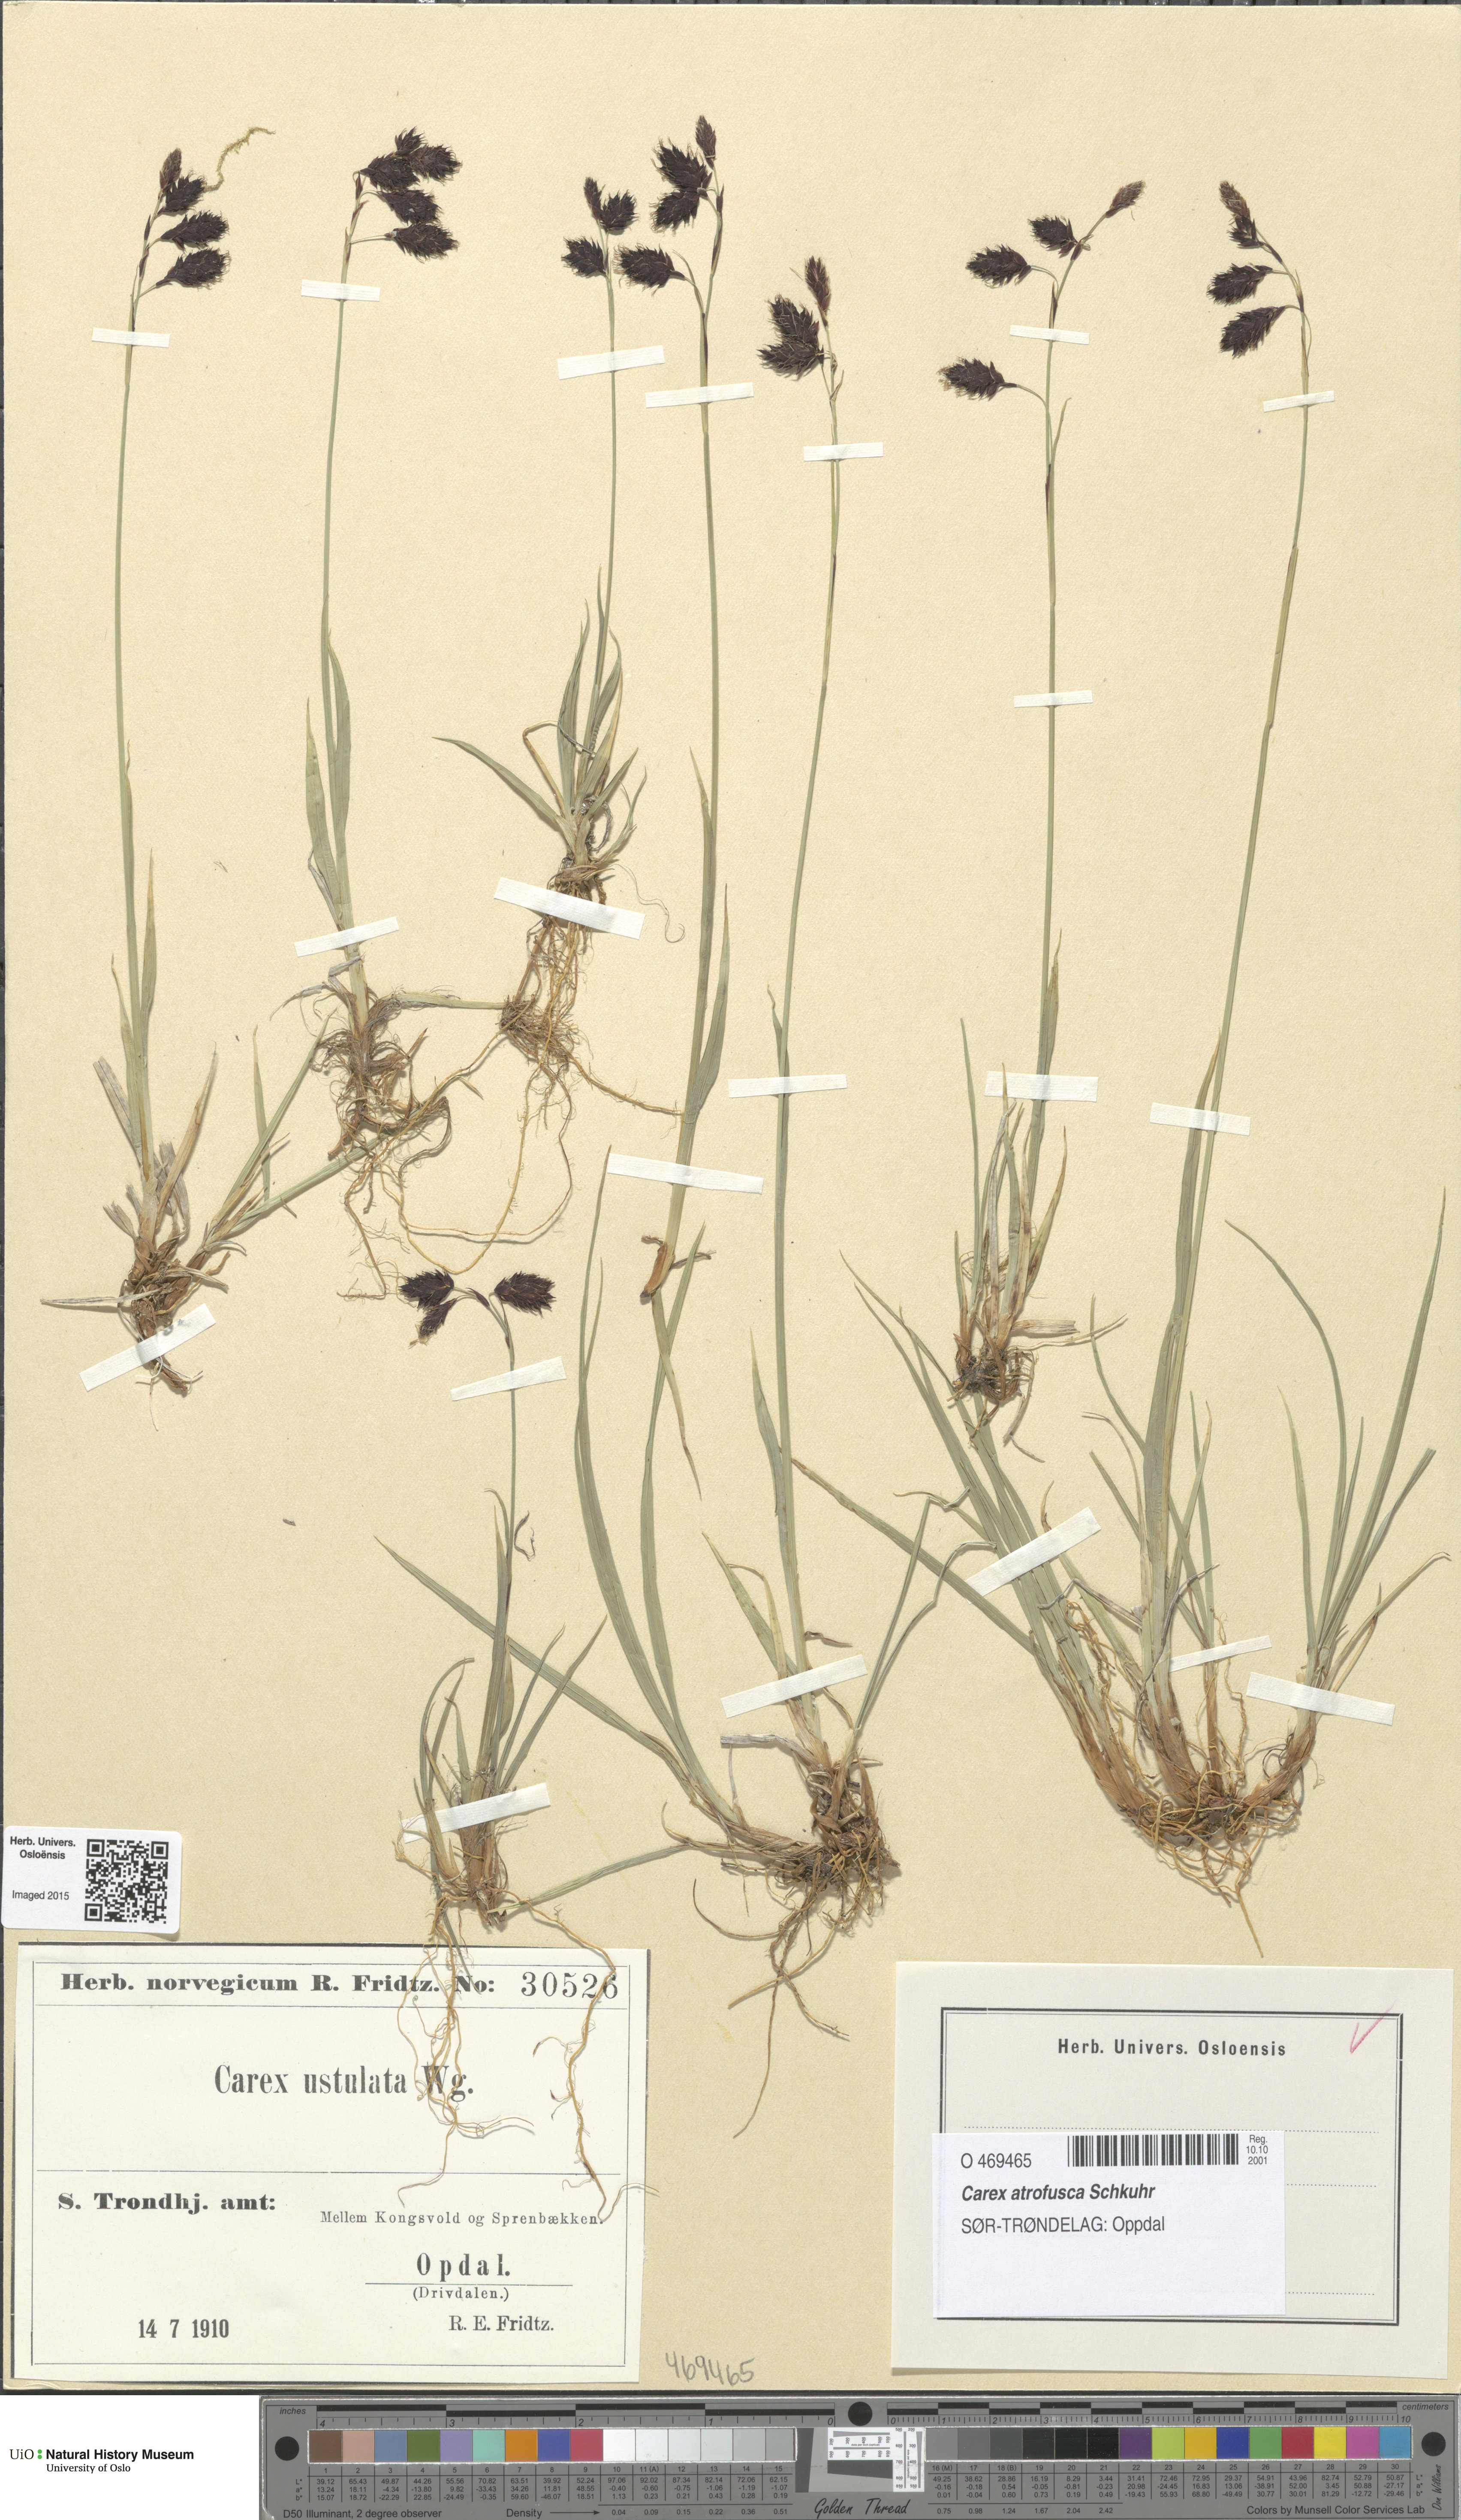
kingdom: Plantae
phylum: Tracheophyta
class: Liliopsida
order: Poales
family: Cyperaceae
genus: Carex
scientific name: Carex atrofusca
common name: Scorched alpine-sedge
